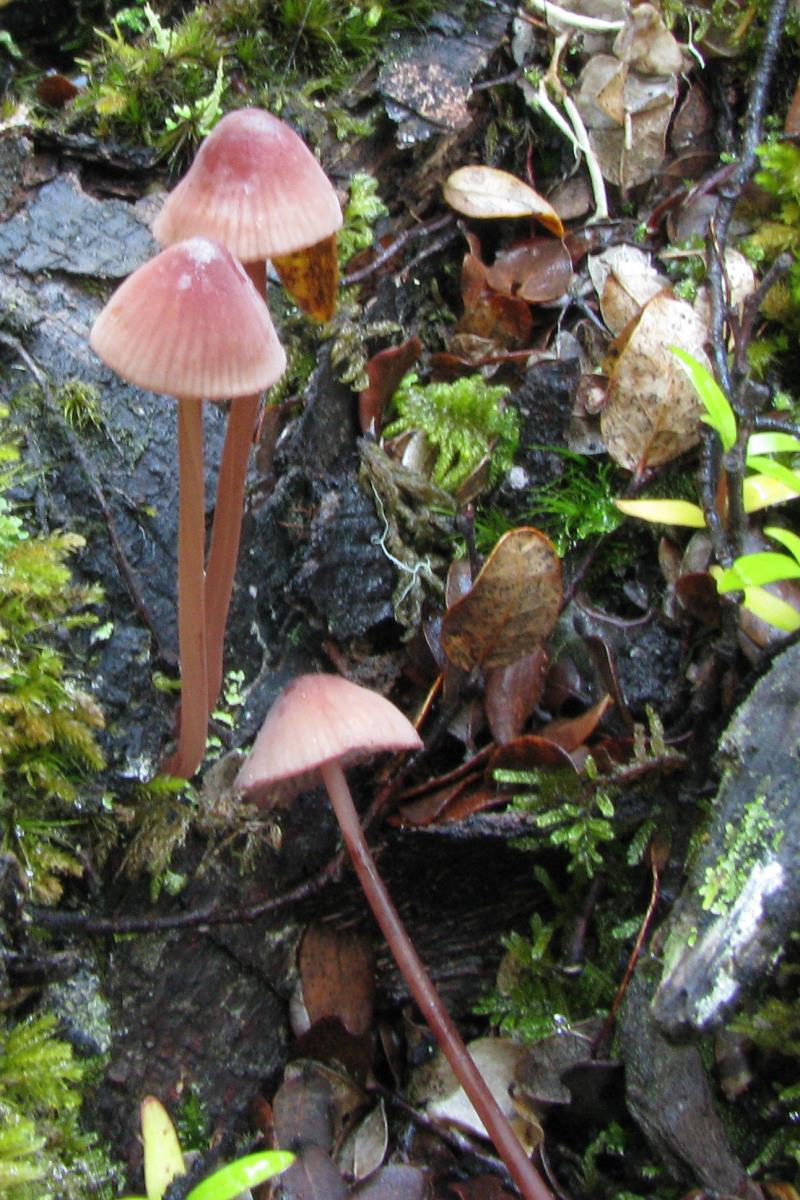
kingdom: Fungi
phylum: Basidiomycota
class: Agaricomycetes
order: Agaricales
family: Mycenaceae
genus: Mycena
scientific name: Mycena mariae
